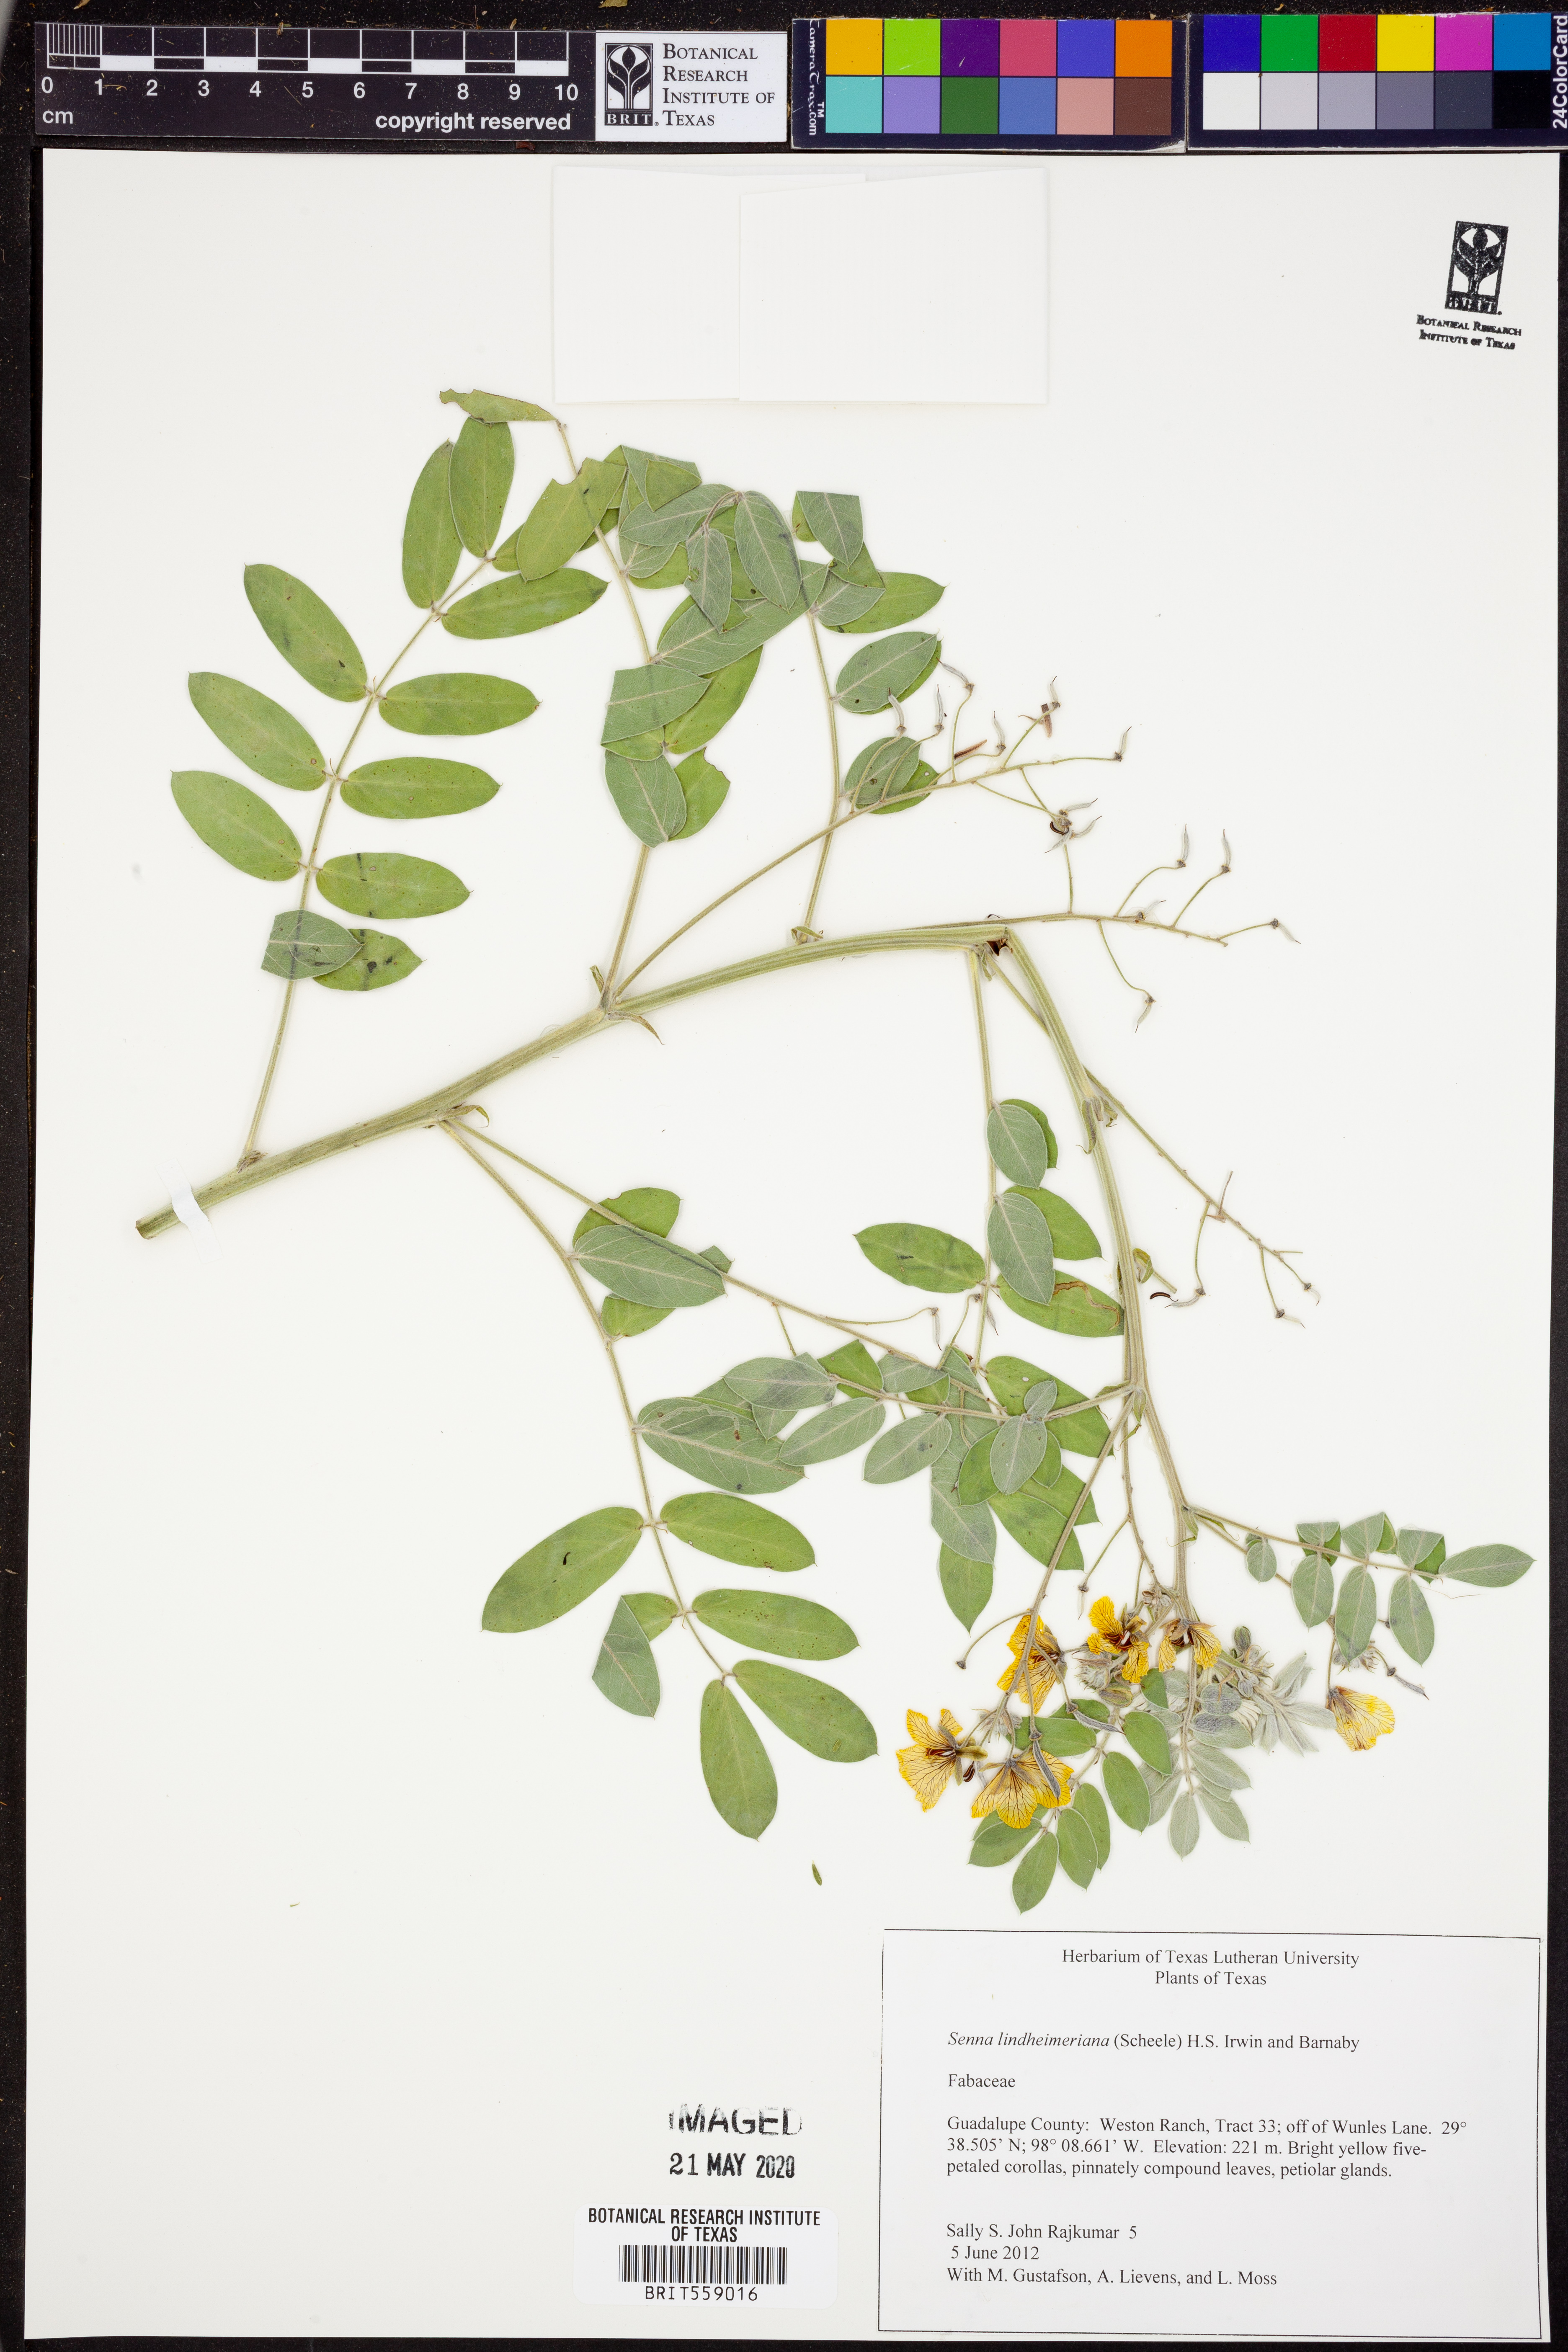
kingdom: Plantae
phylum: Tracheophyta
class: Magnoliopsida
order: Fabales
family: Fabaceae
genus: Senna
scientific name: Senna lindheimeriana
